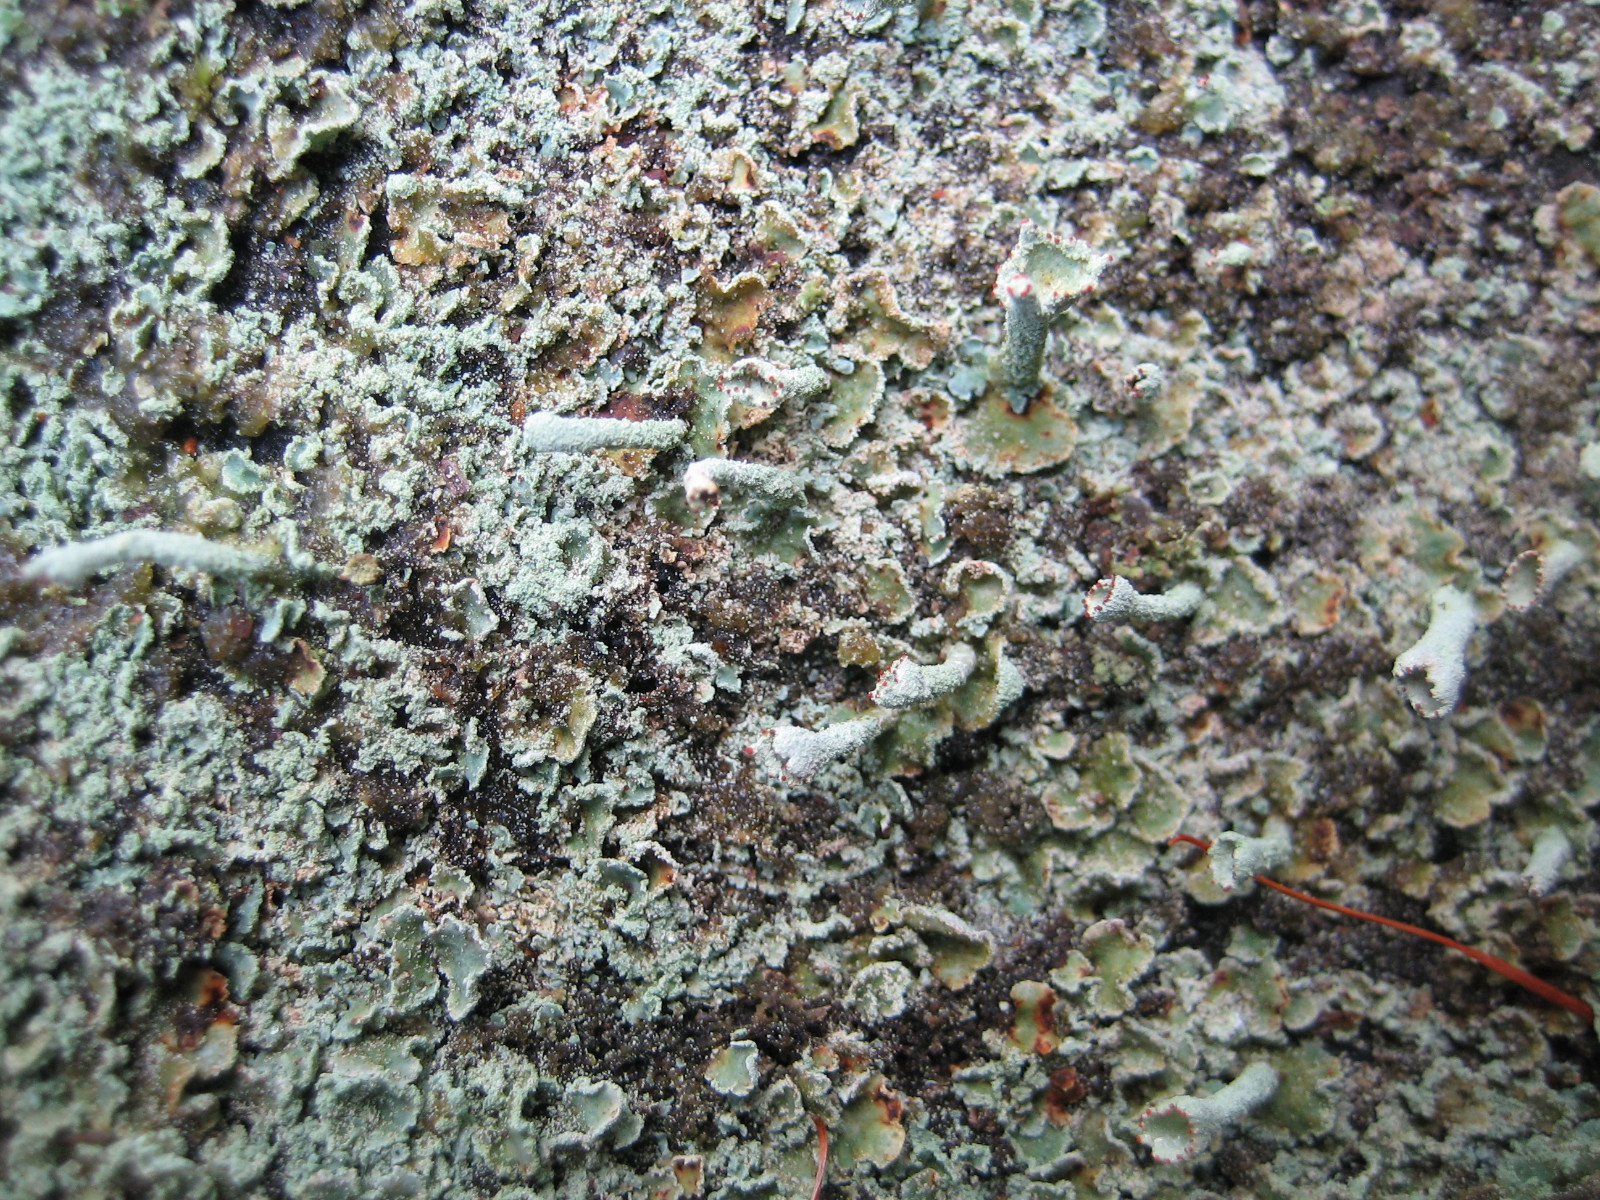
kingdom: Fungi
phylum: Ascomycota
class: Lecanoromycetes
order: Lecanorales
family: Cladoniaceae
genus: Cladonia
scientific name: Cladonia digitata
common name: finger-bægerlav
